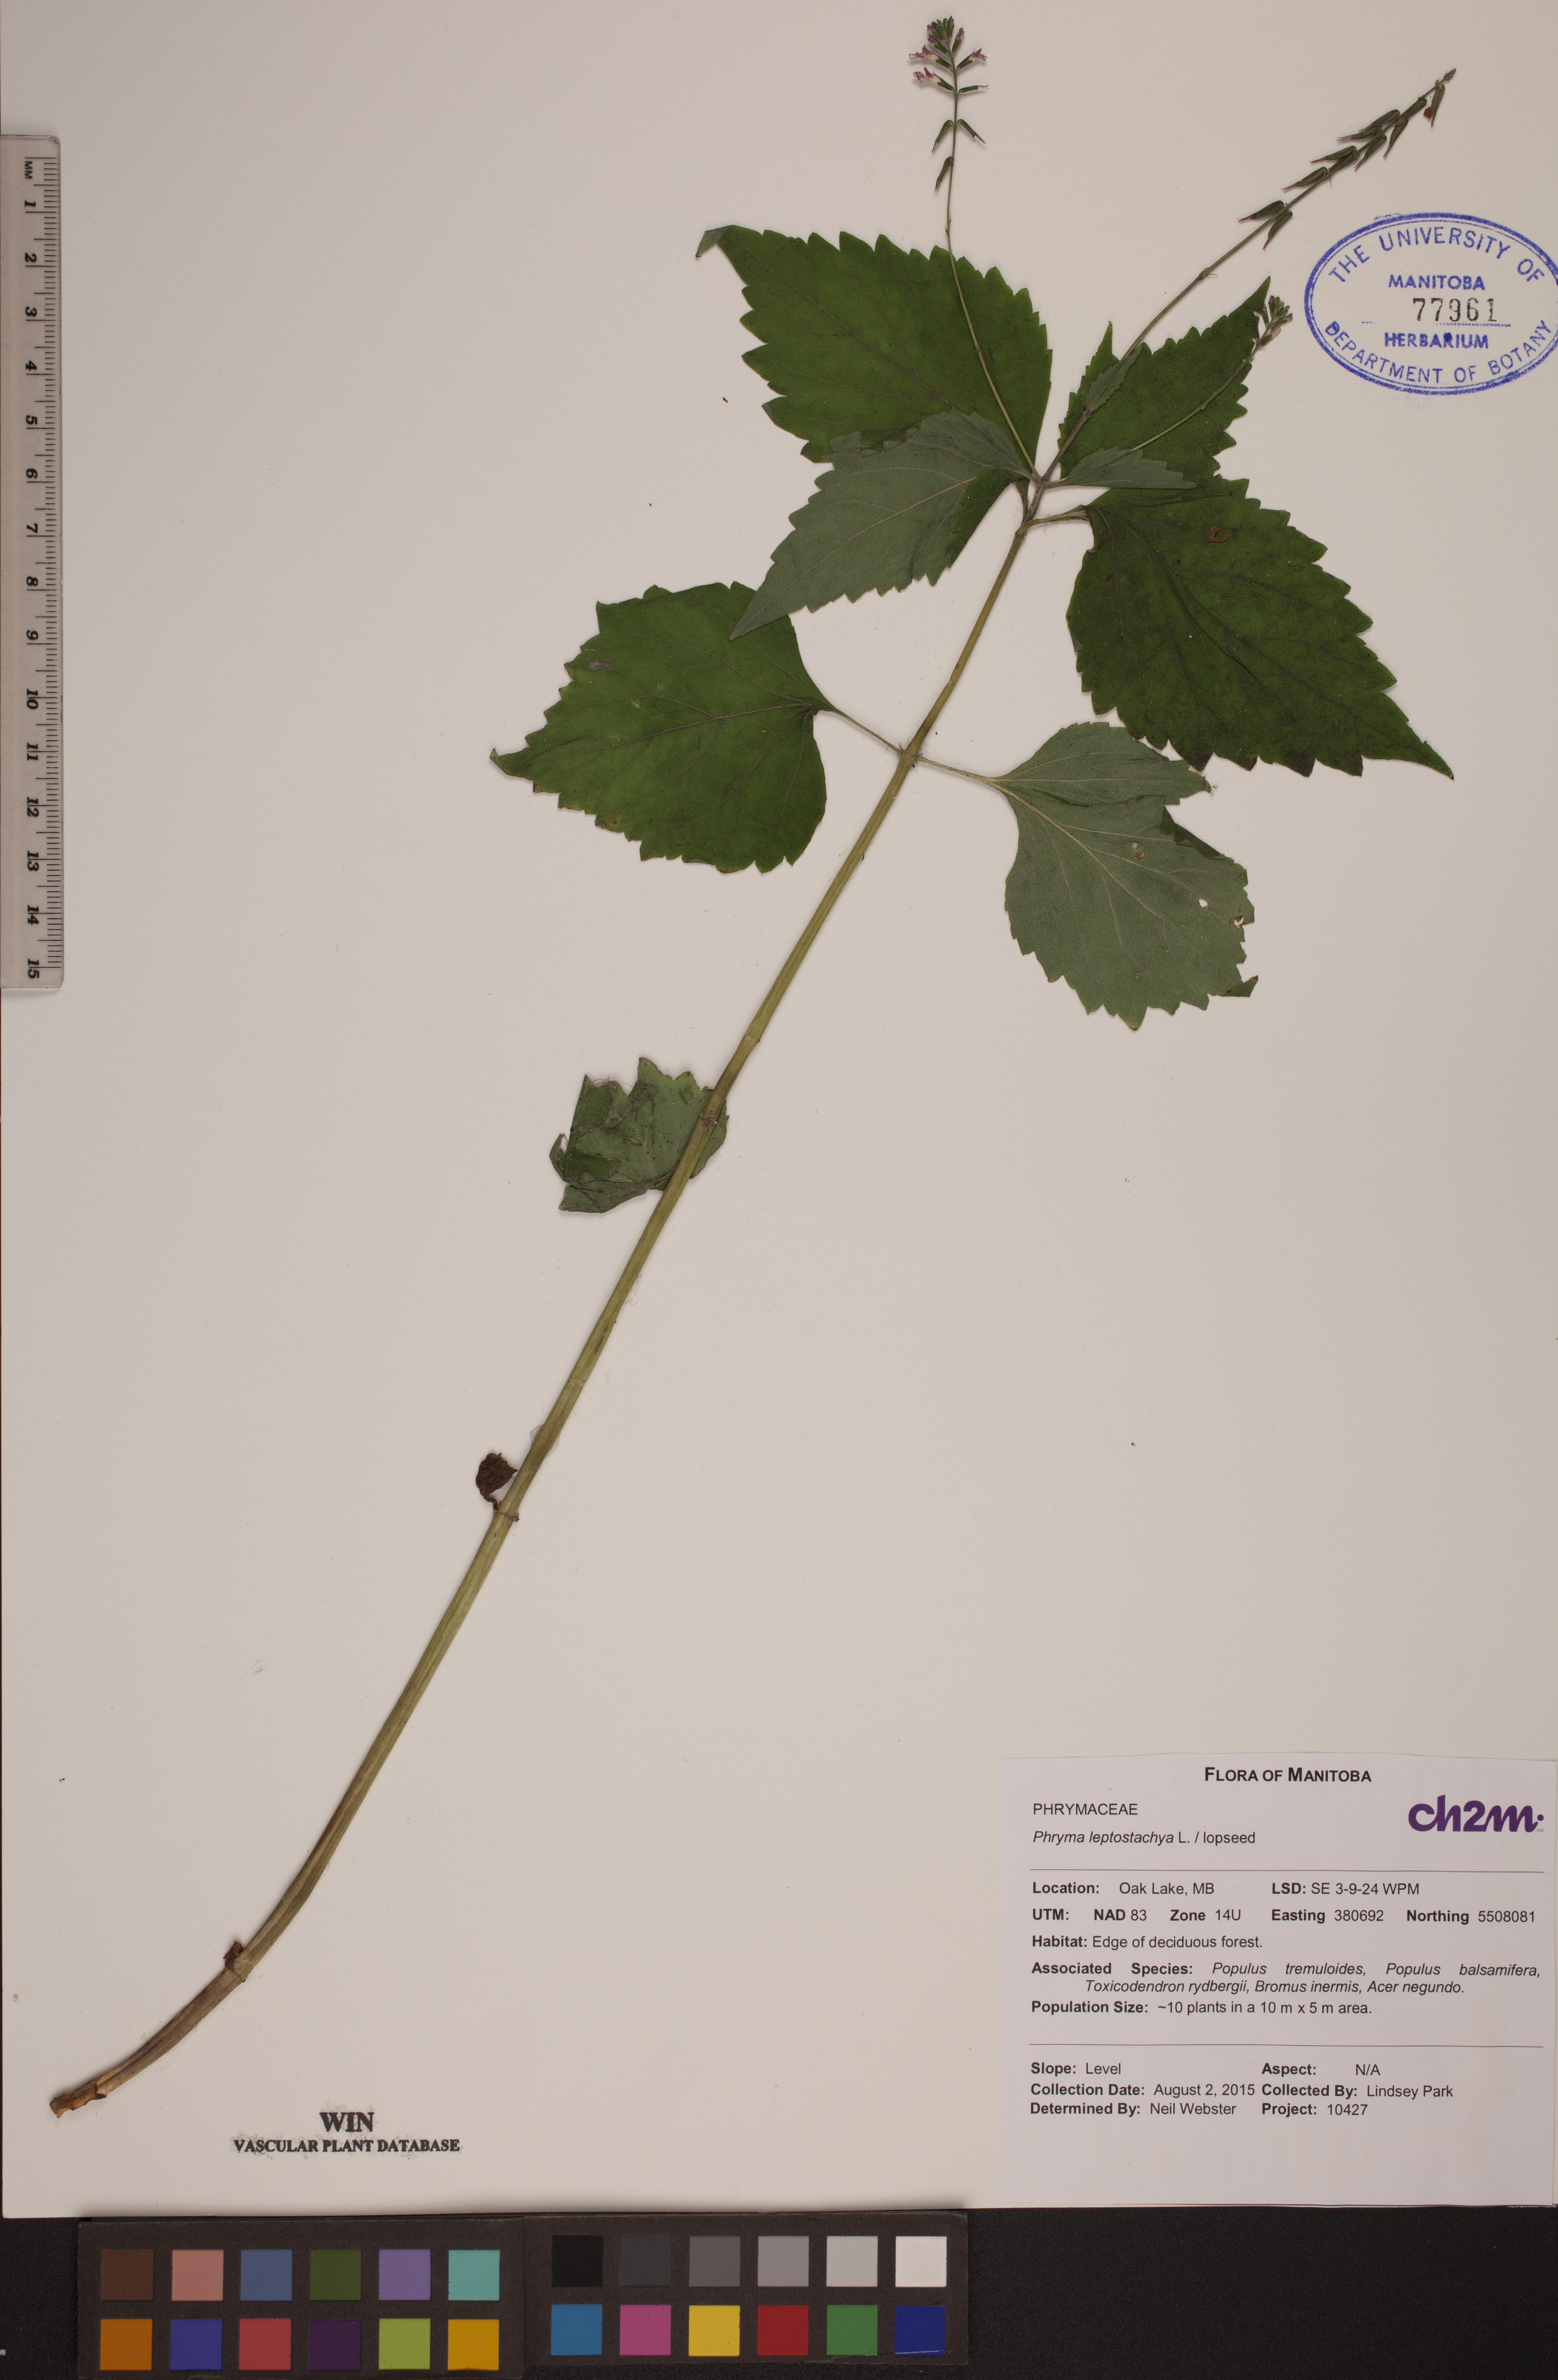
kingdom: Plantae
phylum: Tracheophyta
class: Magnoliopsida
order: Lamiales
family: Phrymaceae
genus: Phryma
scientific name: Phryma leptostachya
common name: American lopseed
